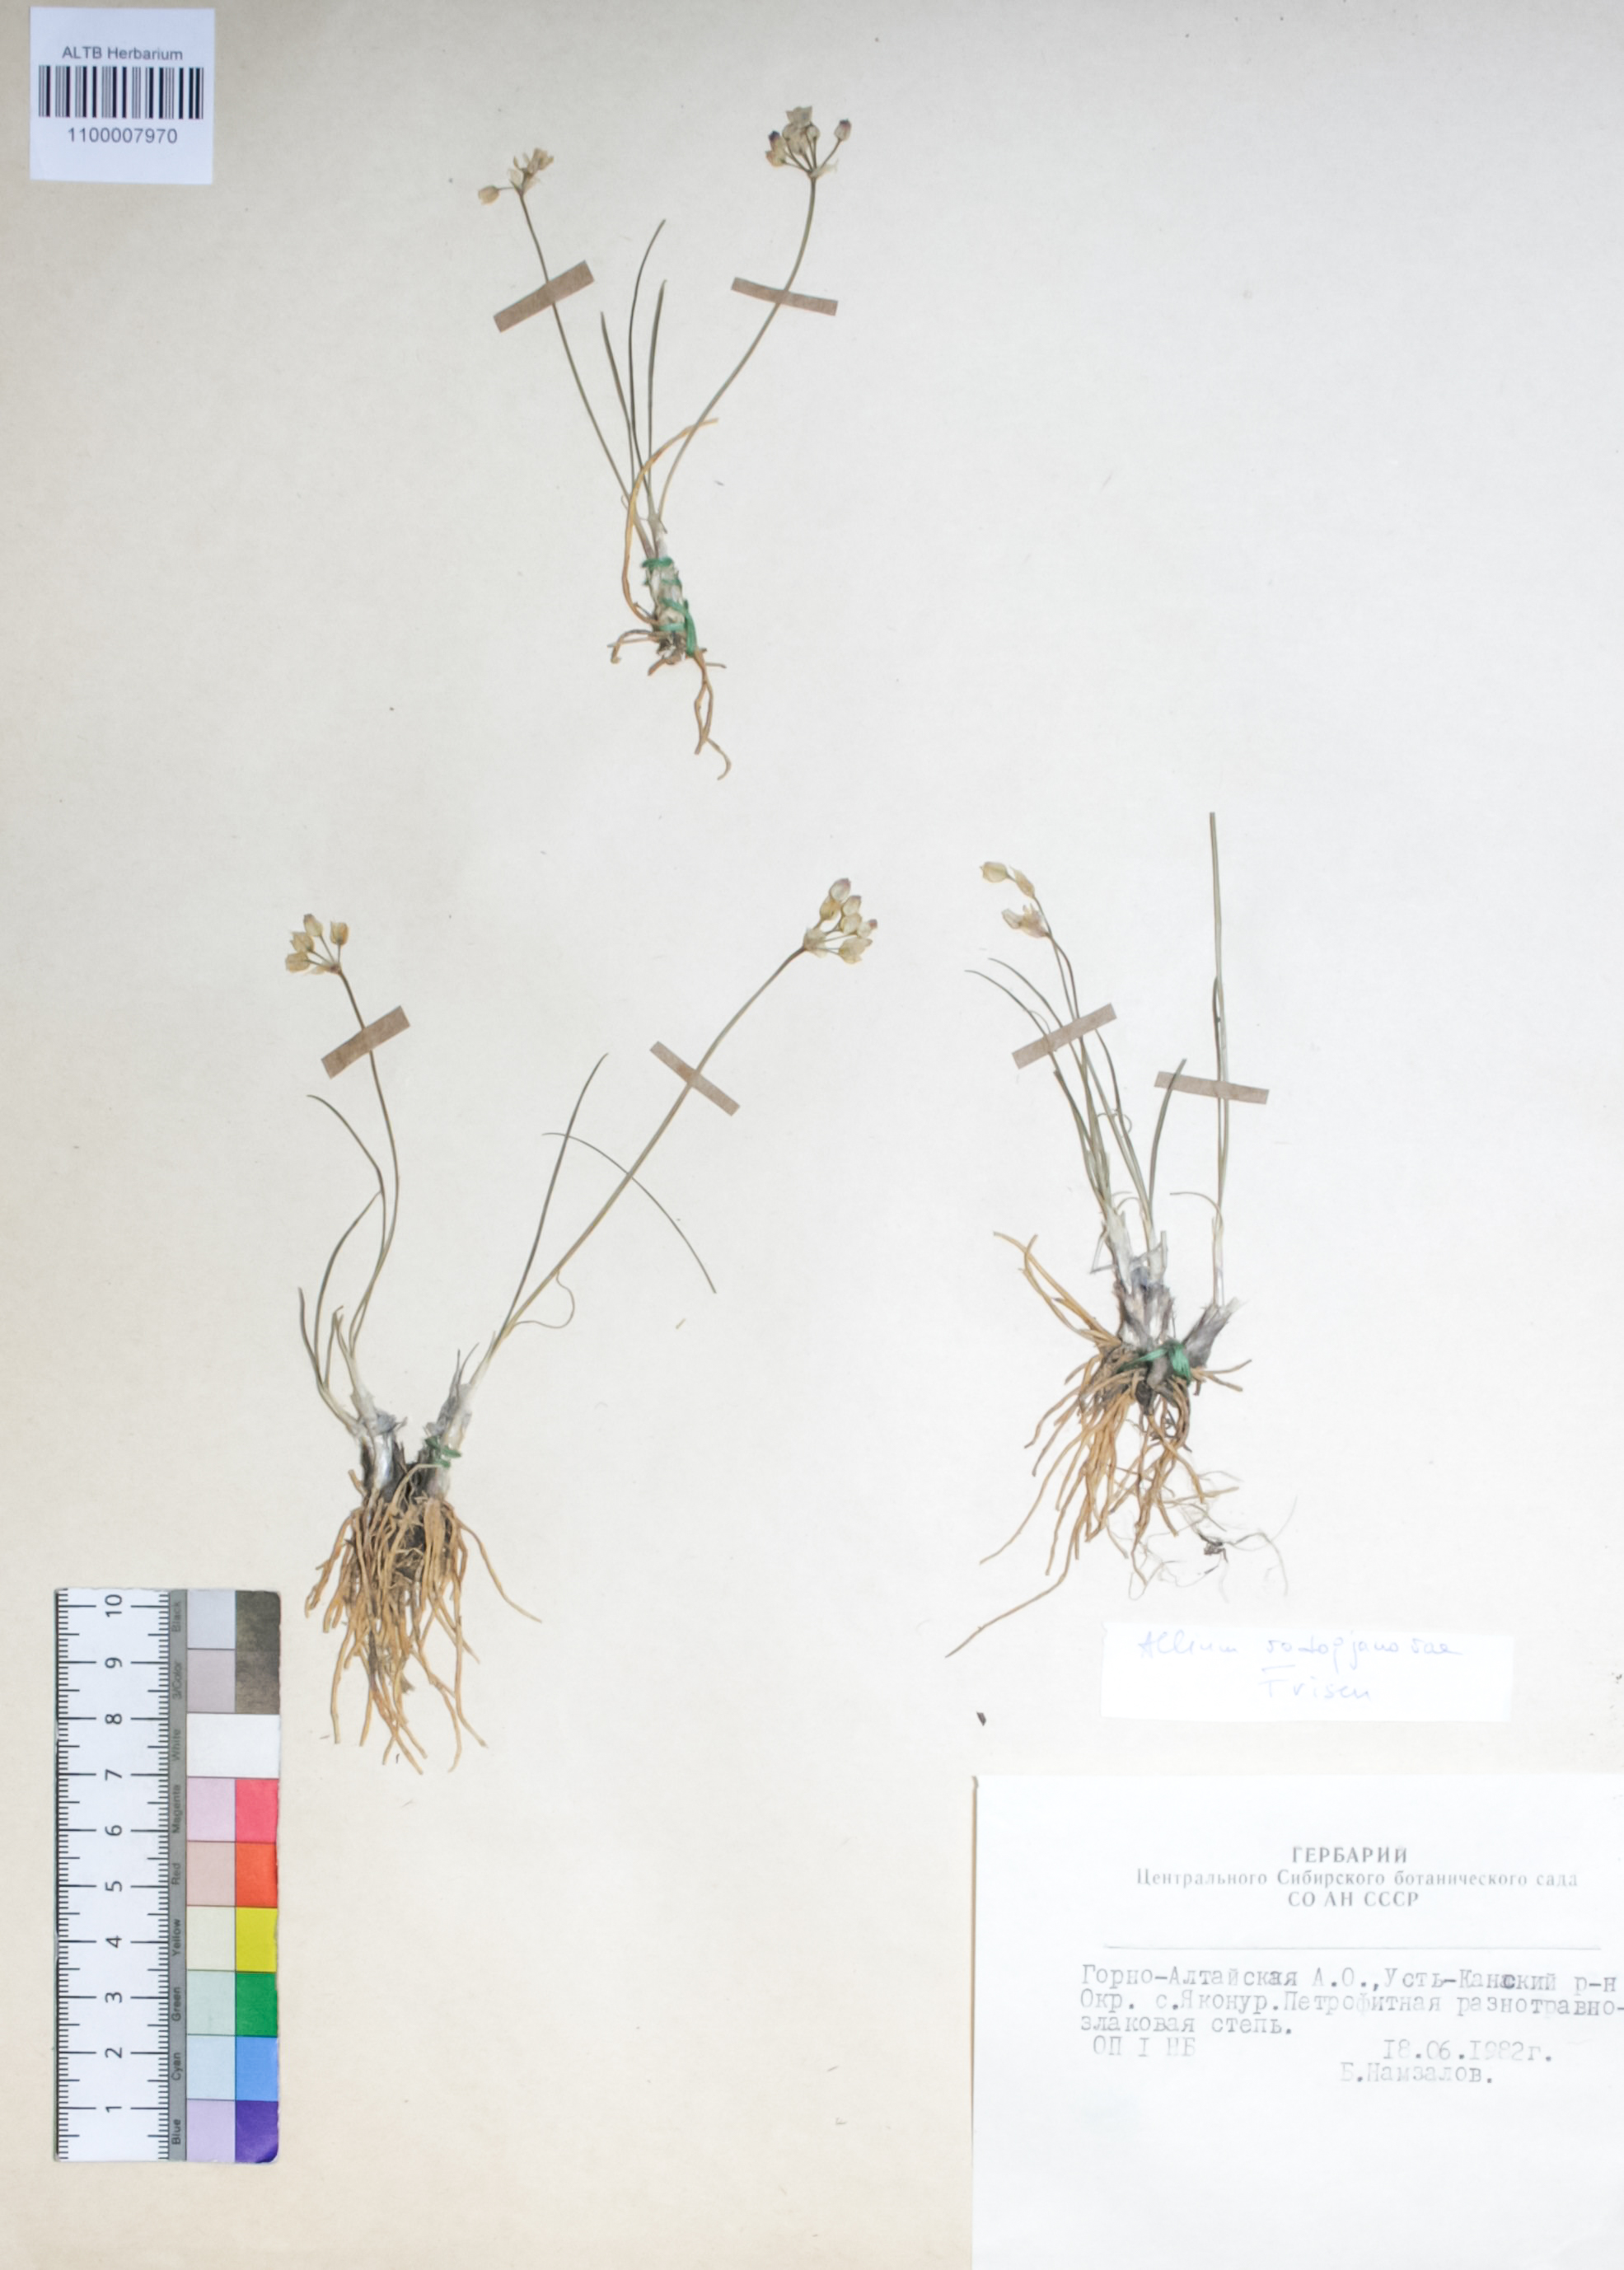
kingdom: Plantae
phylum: Tracheophyta
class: Liliopsida
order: Asparagales
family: Amaryllidaceae
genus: Allium
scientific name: Allium vodopjanovae
